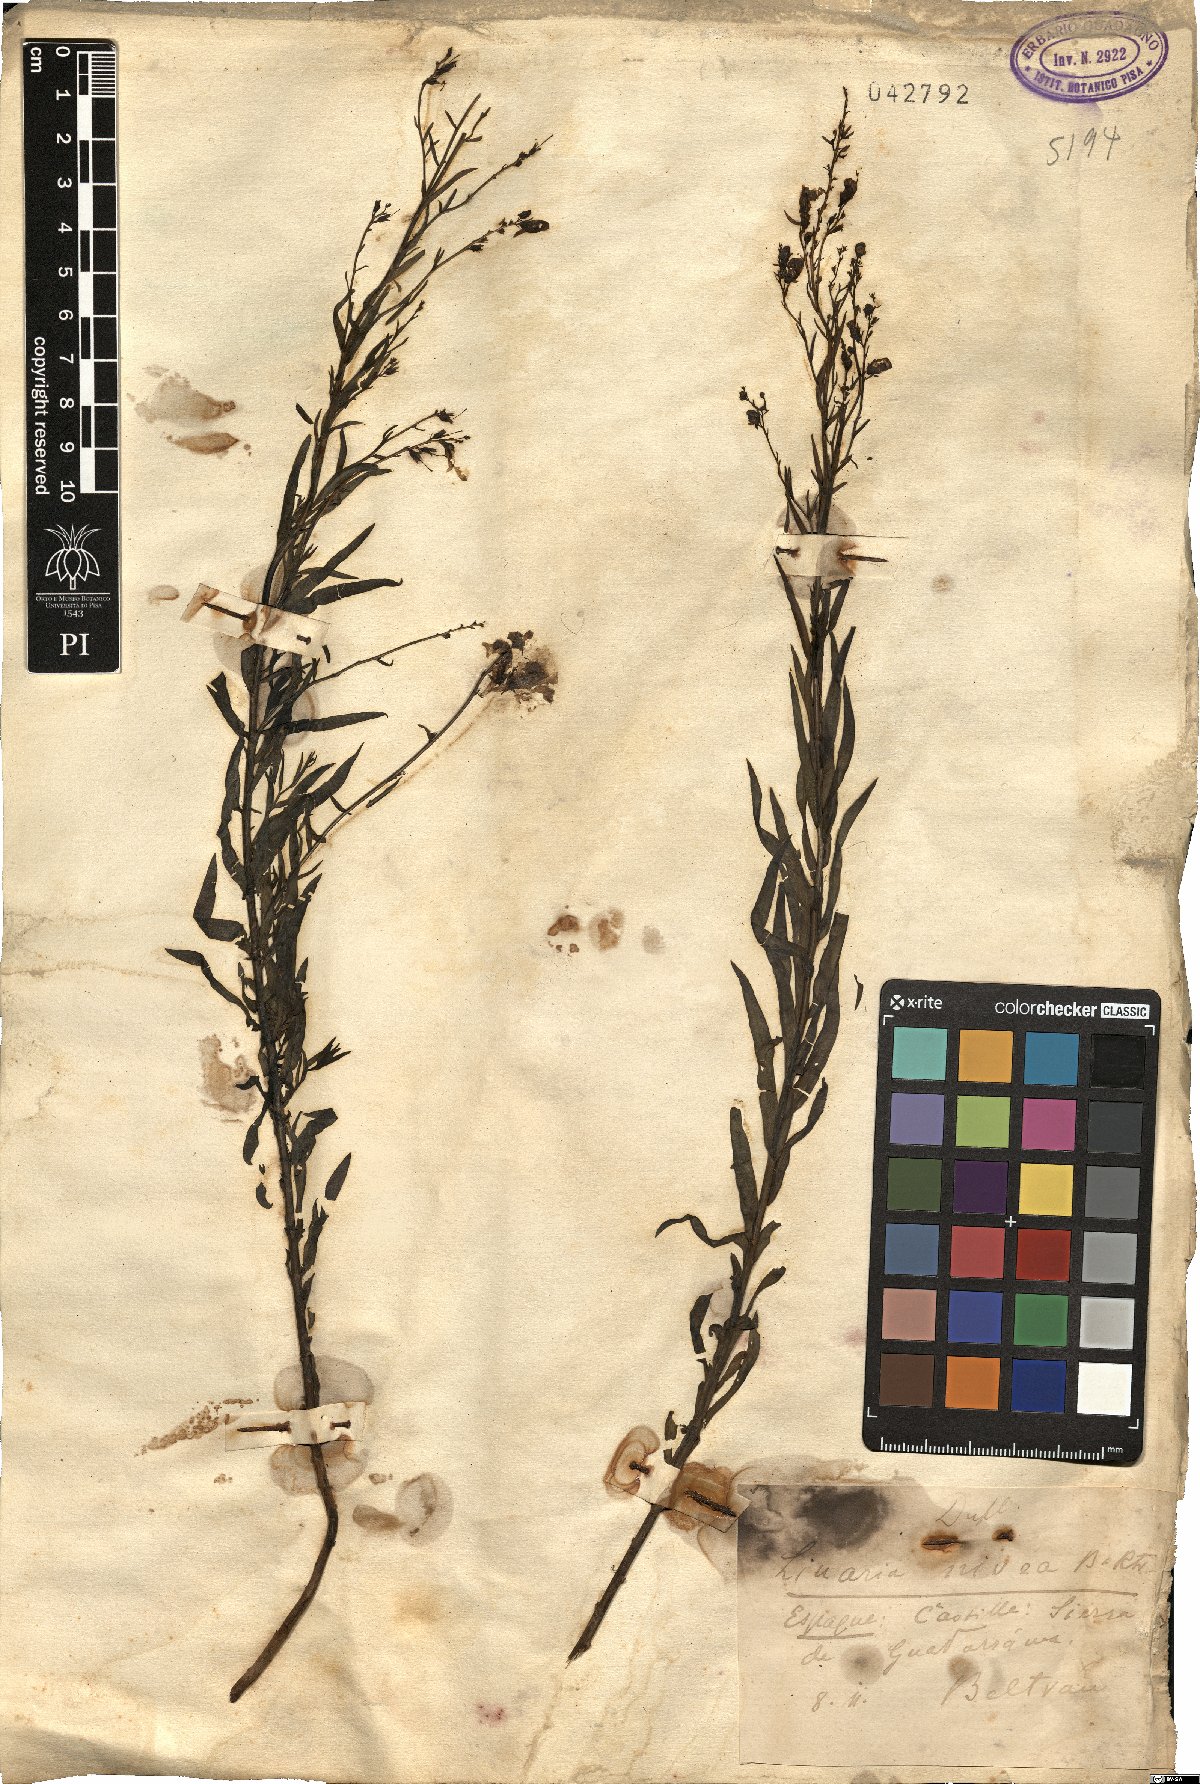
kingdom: Plantae
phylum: Tracheophyta
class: Magnoliopsida
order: Lamiales
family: Plantaginaceae
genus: Linaria
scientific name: Linaria nivea
